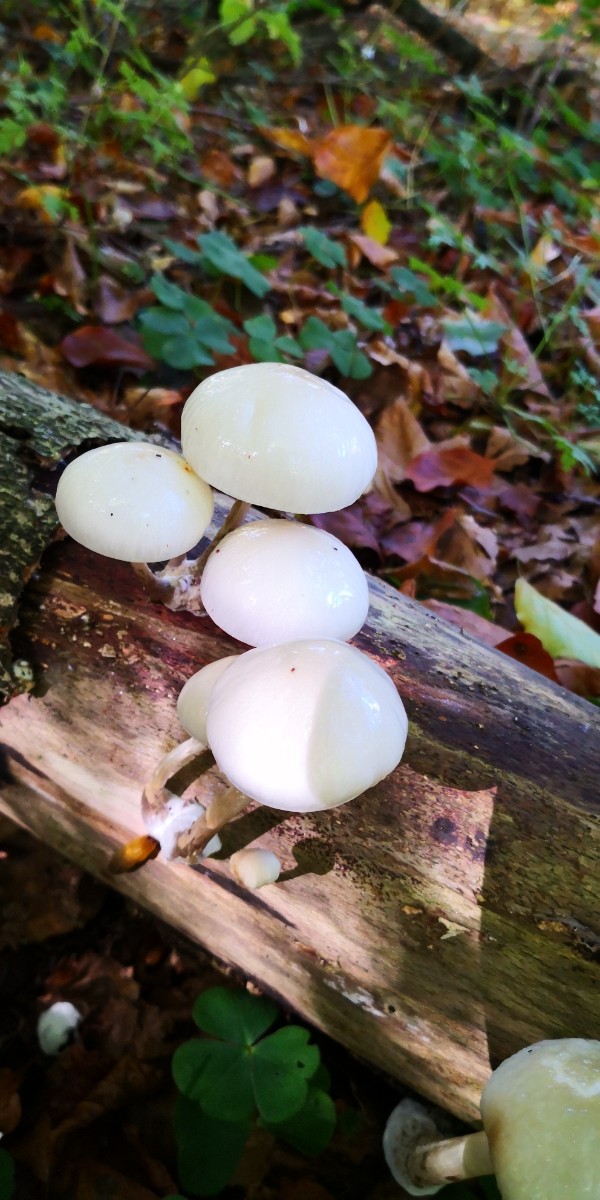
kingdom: Fungi
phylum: Basidiomycota
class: Agaricomycetes
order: Agaricales
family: Physalacriaceae
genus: Mucidula
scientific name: Mucidula mucida
